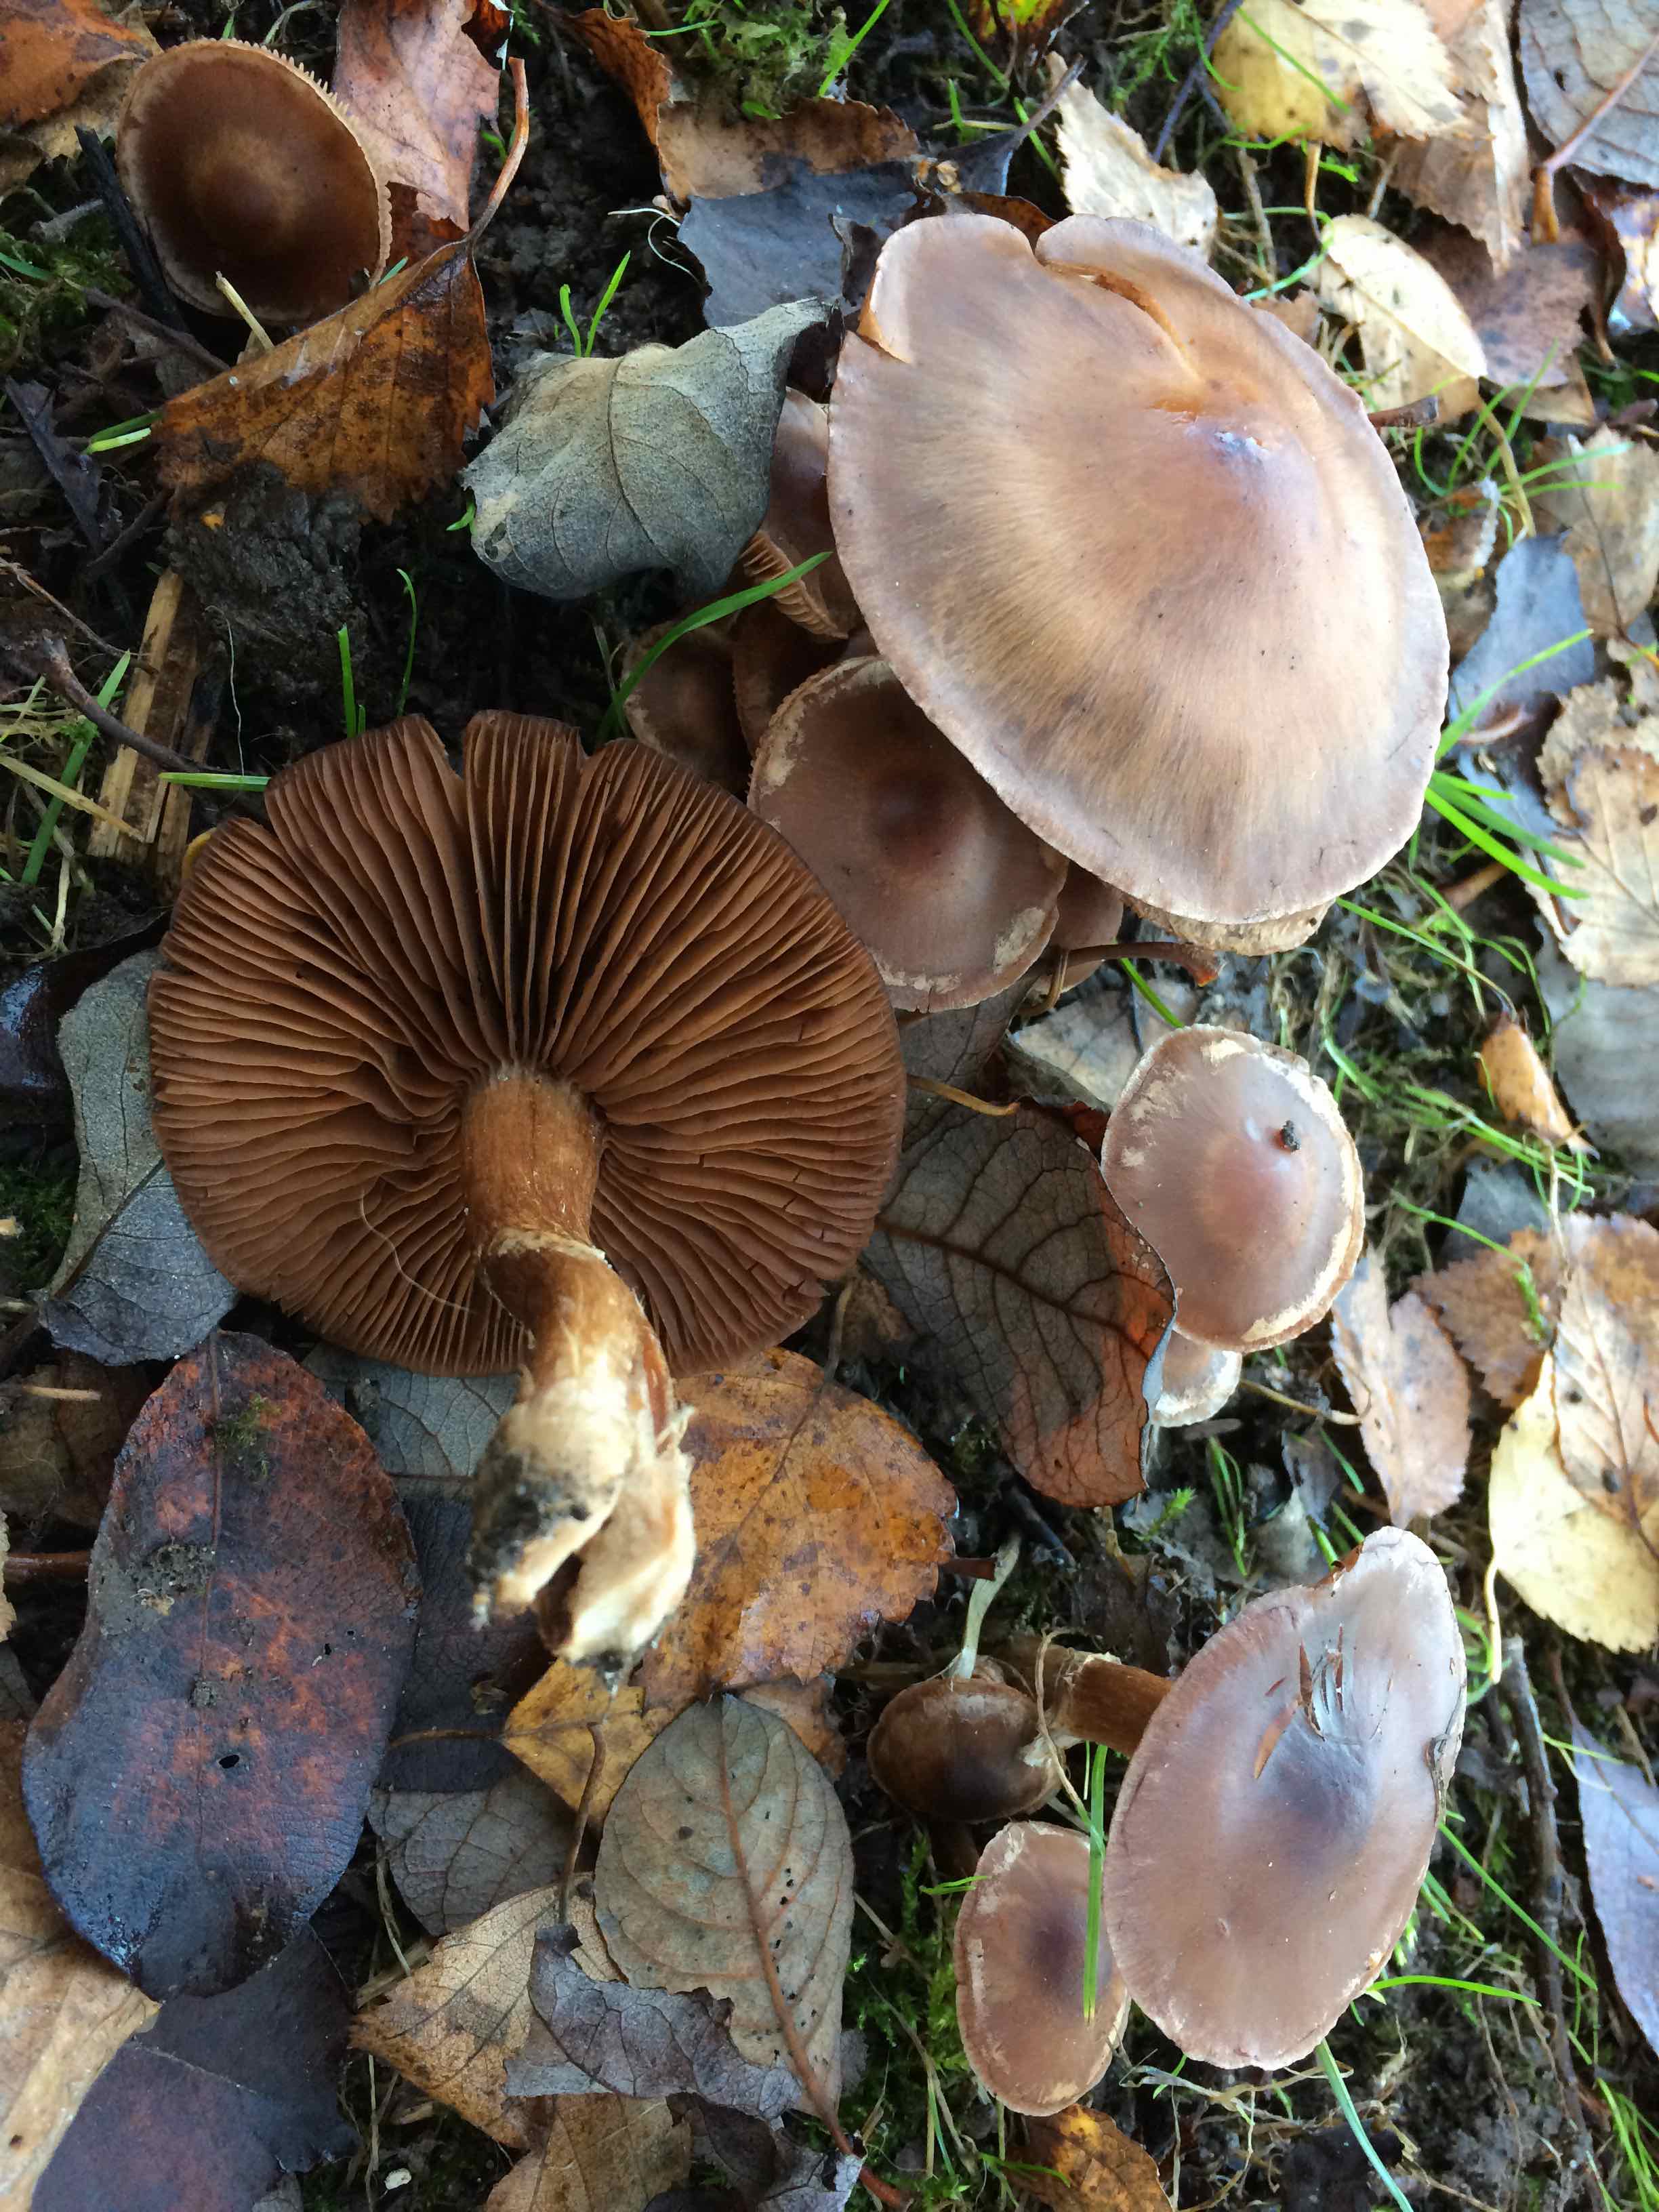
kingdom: Fungi
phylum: Basidiomycota
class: Agaricomycetes
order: Agaricales
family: Cortinariaceae
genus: Cortinarius
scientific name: Cortinarius
